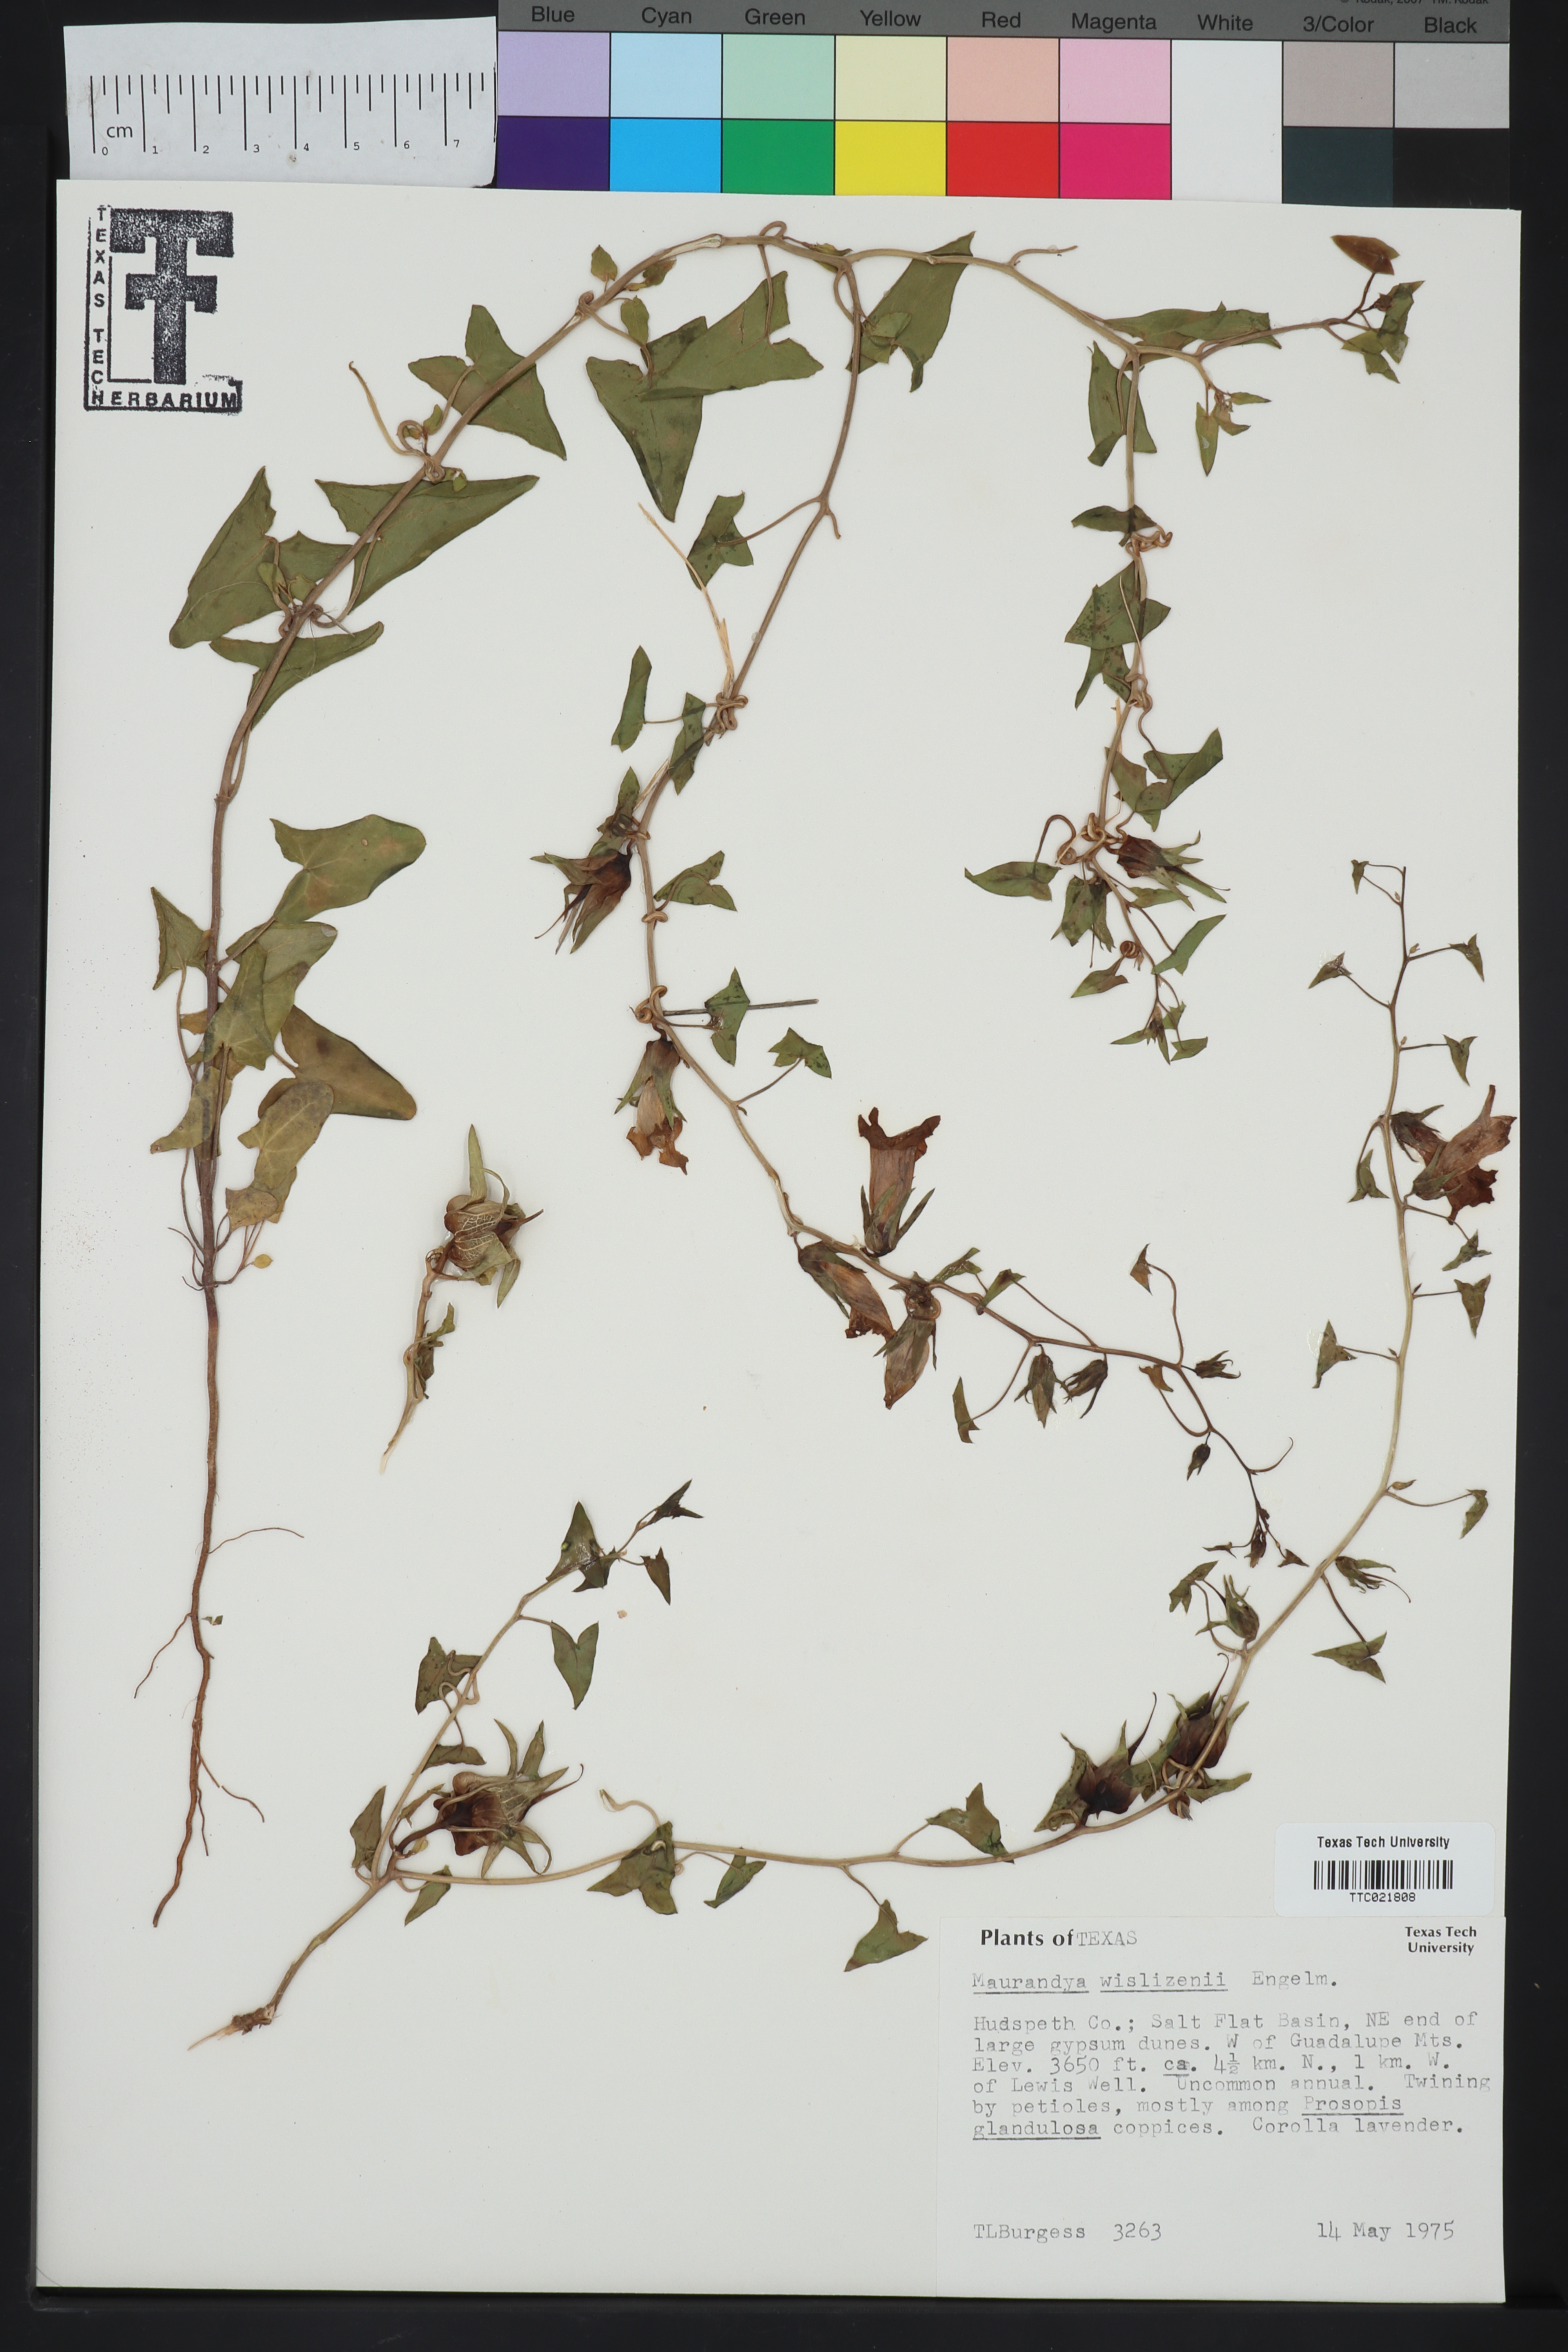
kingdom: Plantae
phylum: Tracheophyta
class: Magnoliopsida
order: Lamiales
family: Plantaginaceae
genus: Epixiphium
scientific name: Epixiphium wislizeni
